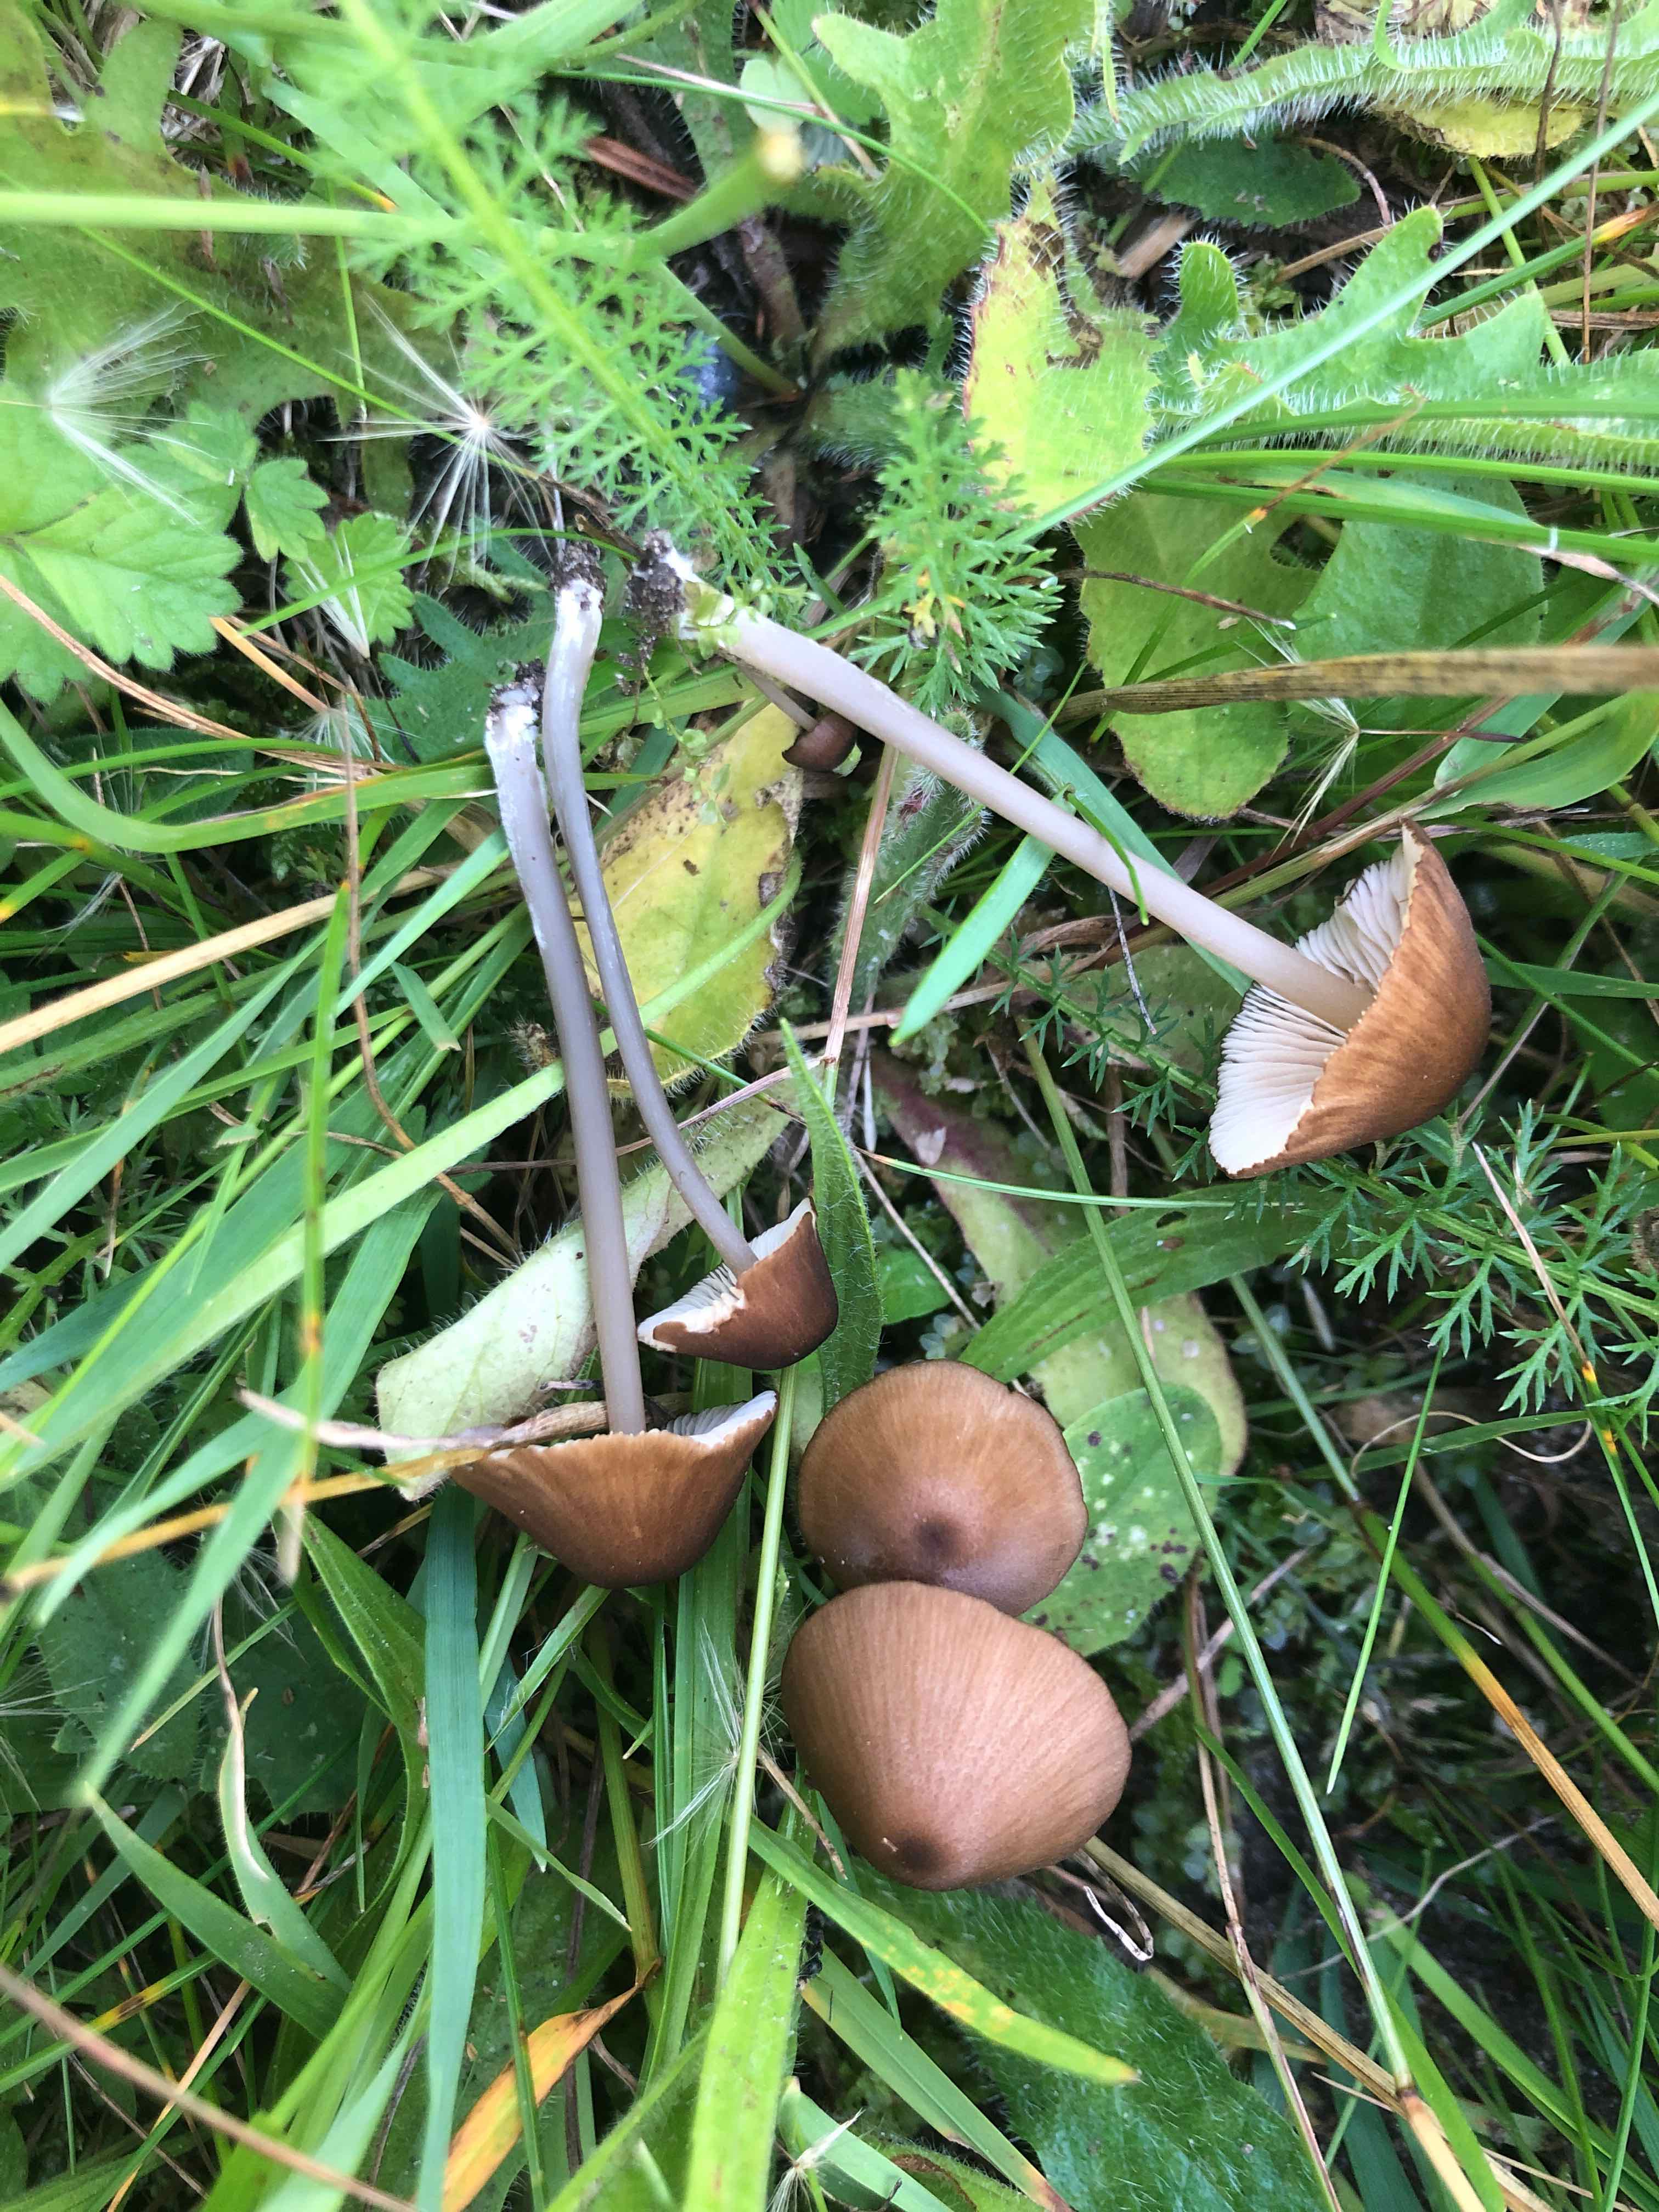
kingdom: Fungi
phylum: Basidiomycota
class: Agaricomycetes
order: Agaricales
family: Entolomataceae
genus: Entoloma
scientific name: Entoloma longistriatum
